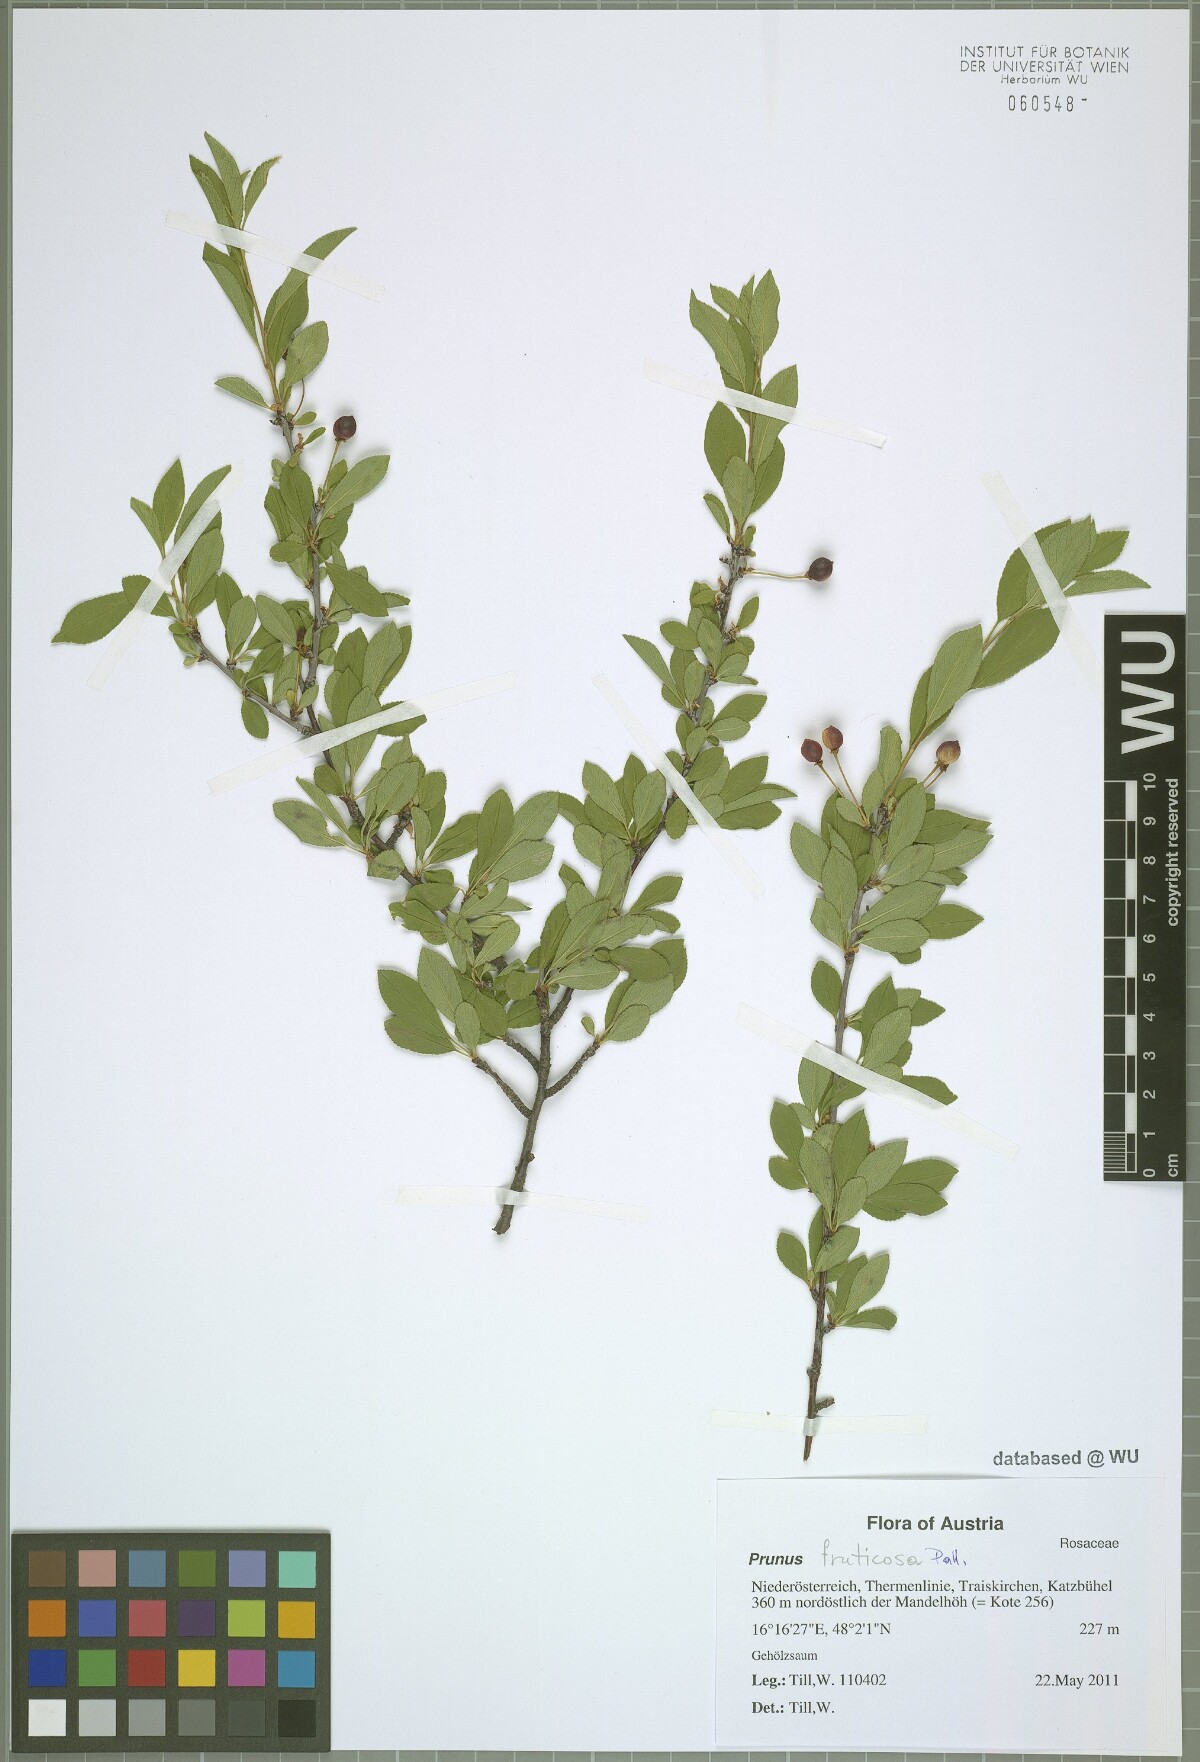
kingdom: Plantae
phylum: Tracheophyta
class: Magnoliopsida
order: Rosales
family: Rosaceae
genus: Prunus
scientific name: Prunus fruticosa
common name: European dwarf cherry
